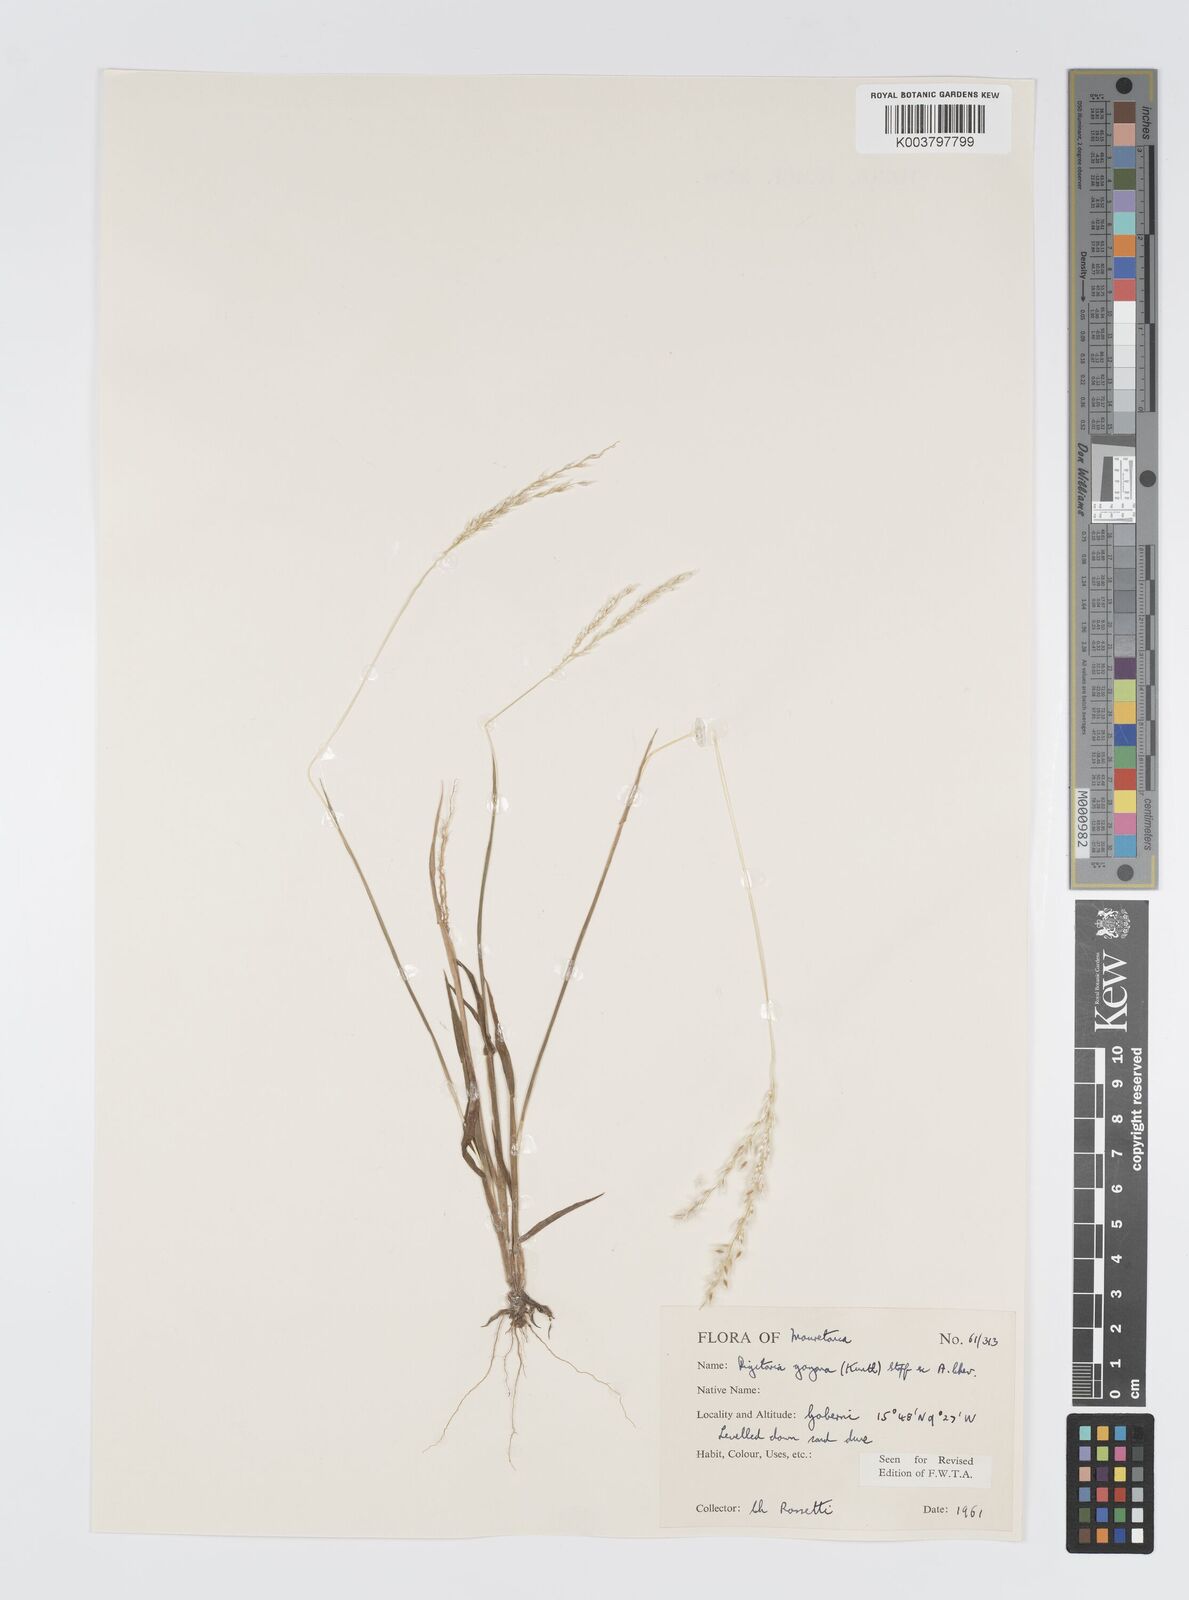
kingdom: Plantae
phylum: Tracheophyta
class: Liliopsida
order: Poales
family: Poaceae
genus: Digitaria
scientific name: Digitaria gayana
